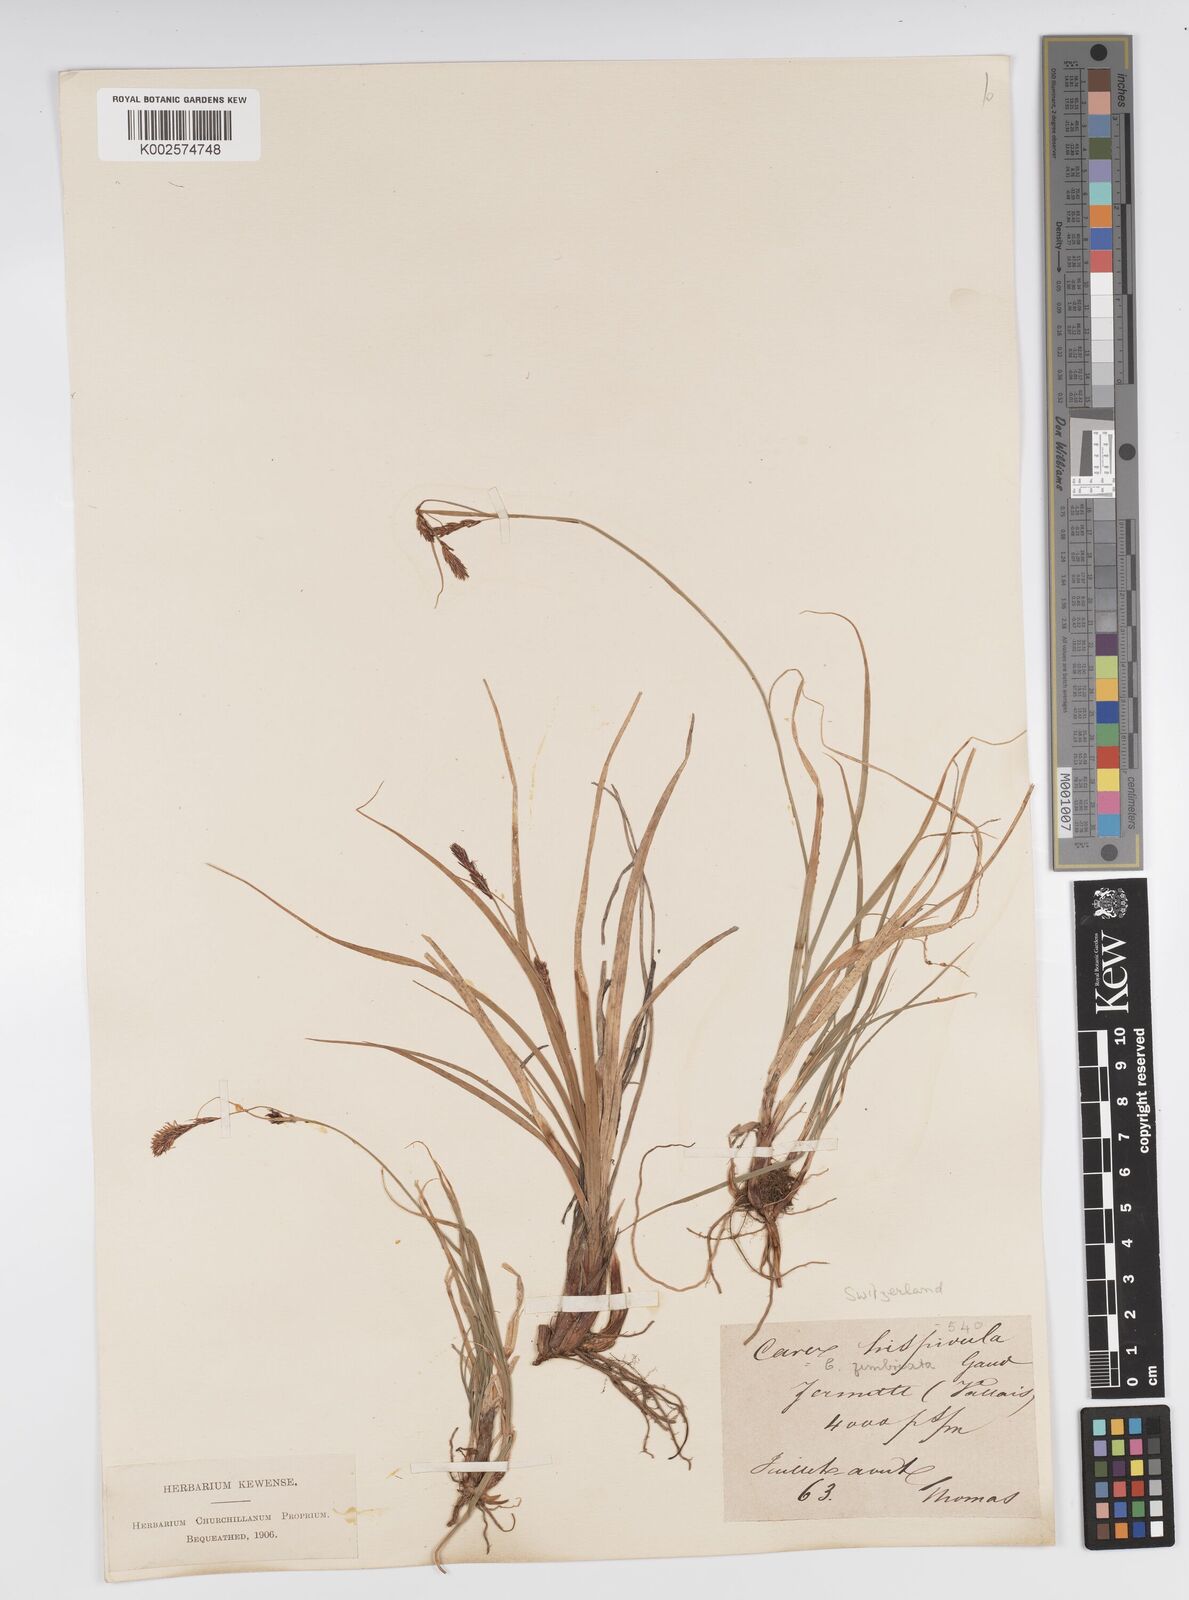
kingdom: Plantae
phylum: Tracheophyta
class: Liliopsida
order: Poales
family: Cyperaceae
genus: Carex
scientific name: Carex fimbriata
